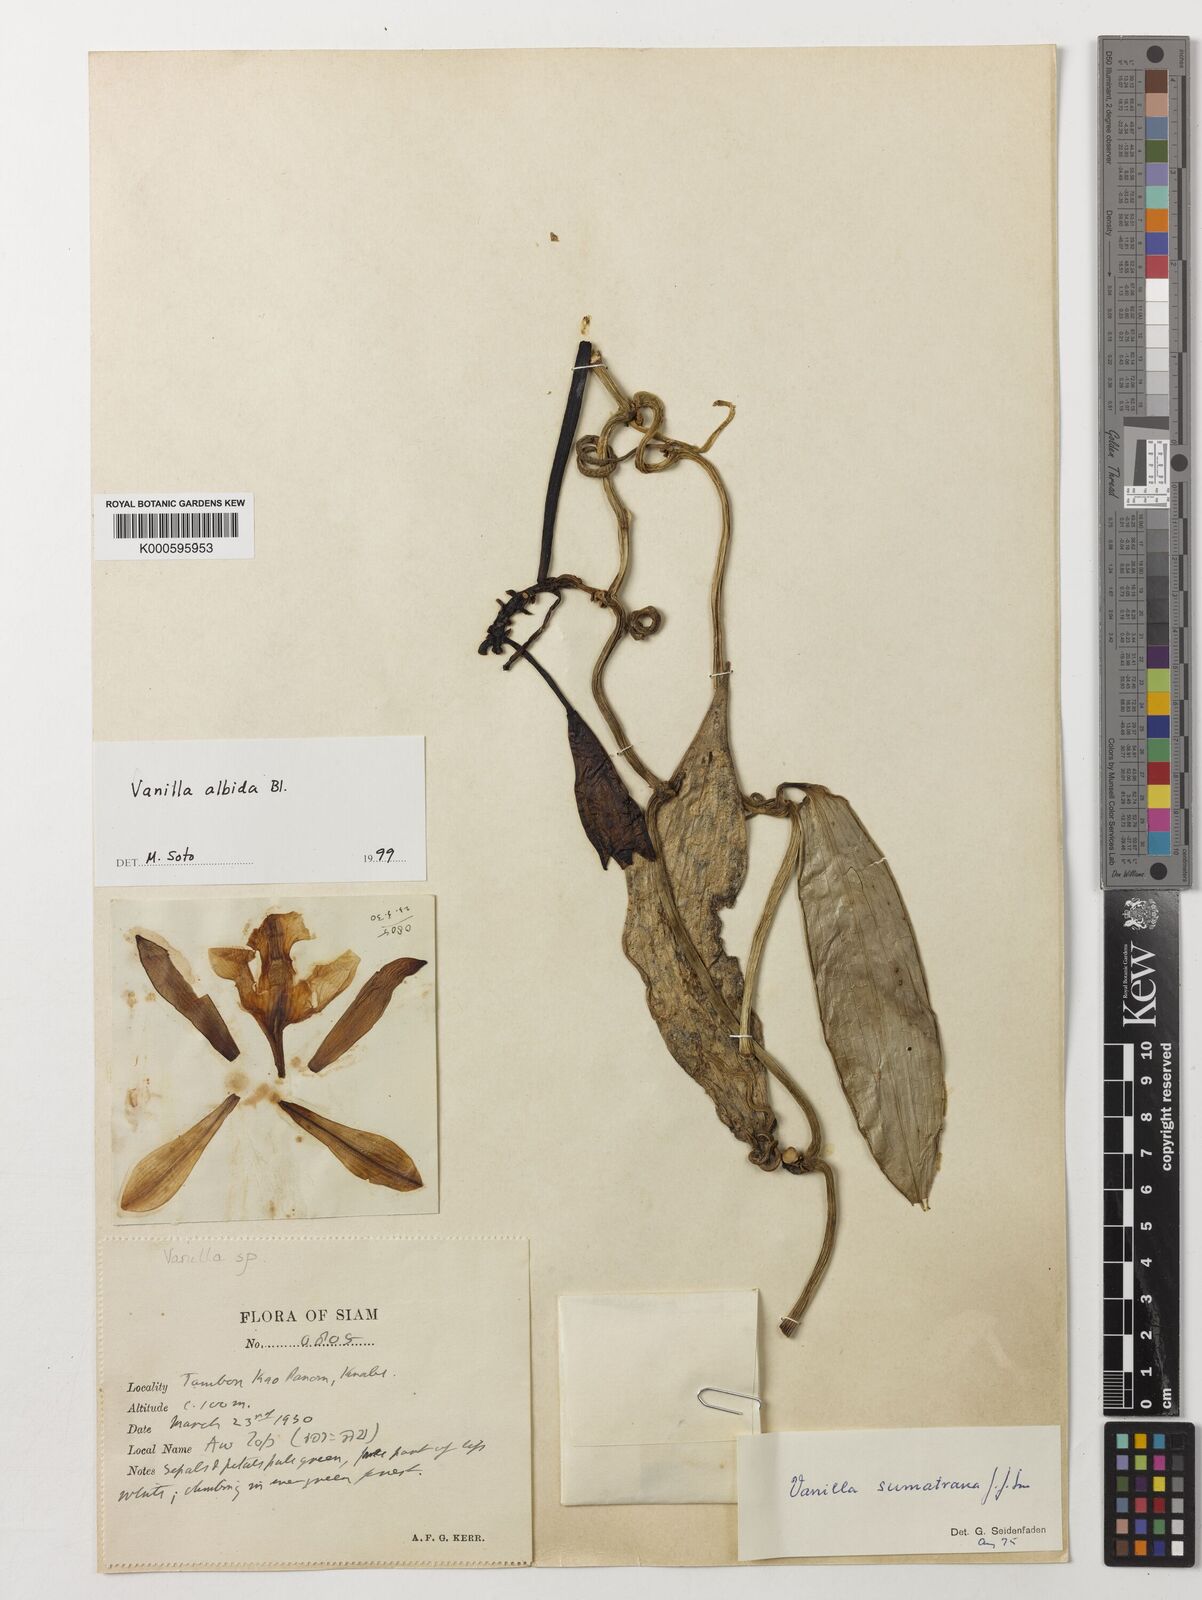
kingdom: Plantae
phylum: Tracheophyta
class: Liliopsida
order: Asparagales
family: Orchidaceae
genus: Vanilla
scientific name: Vanilla albida
